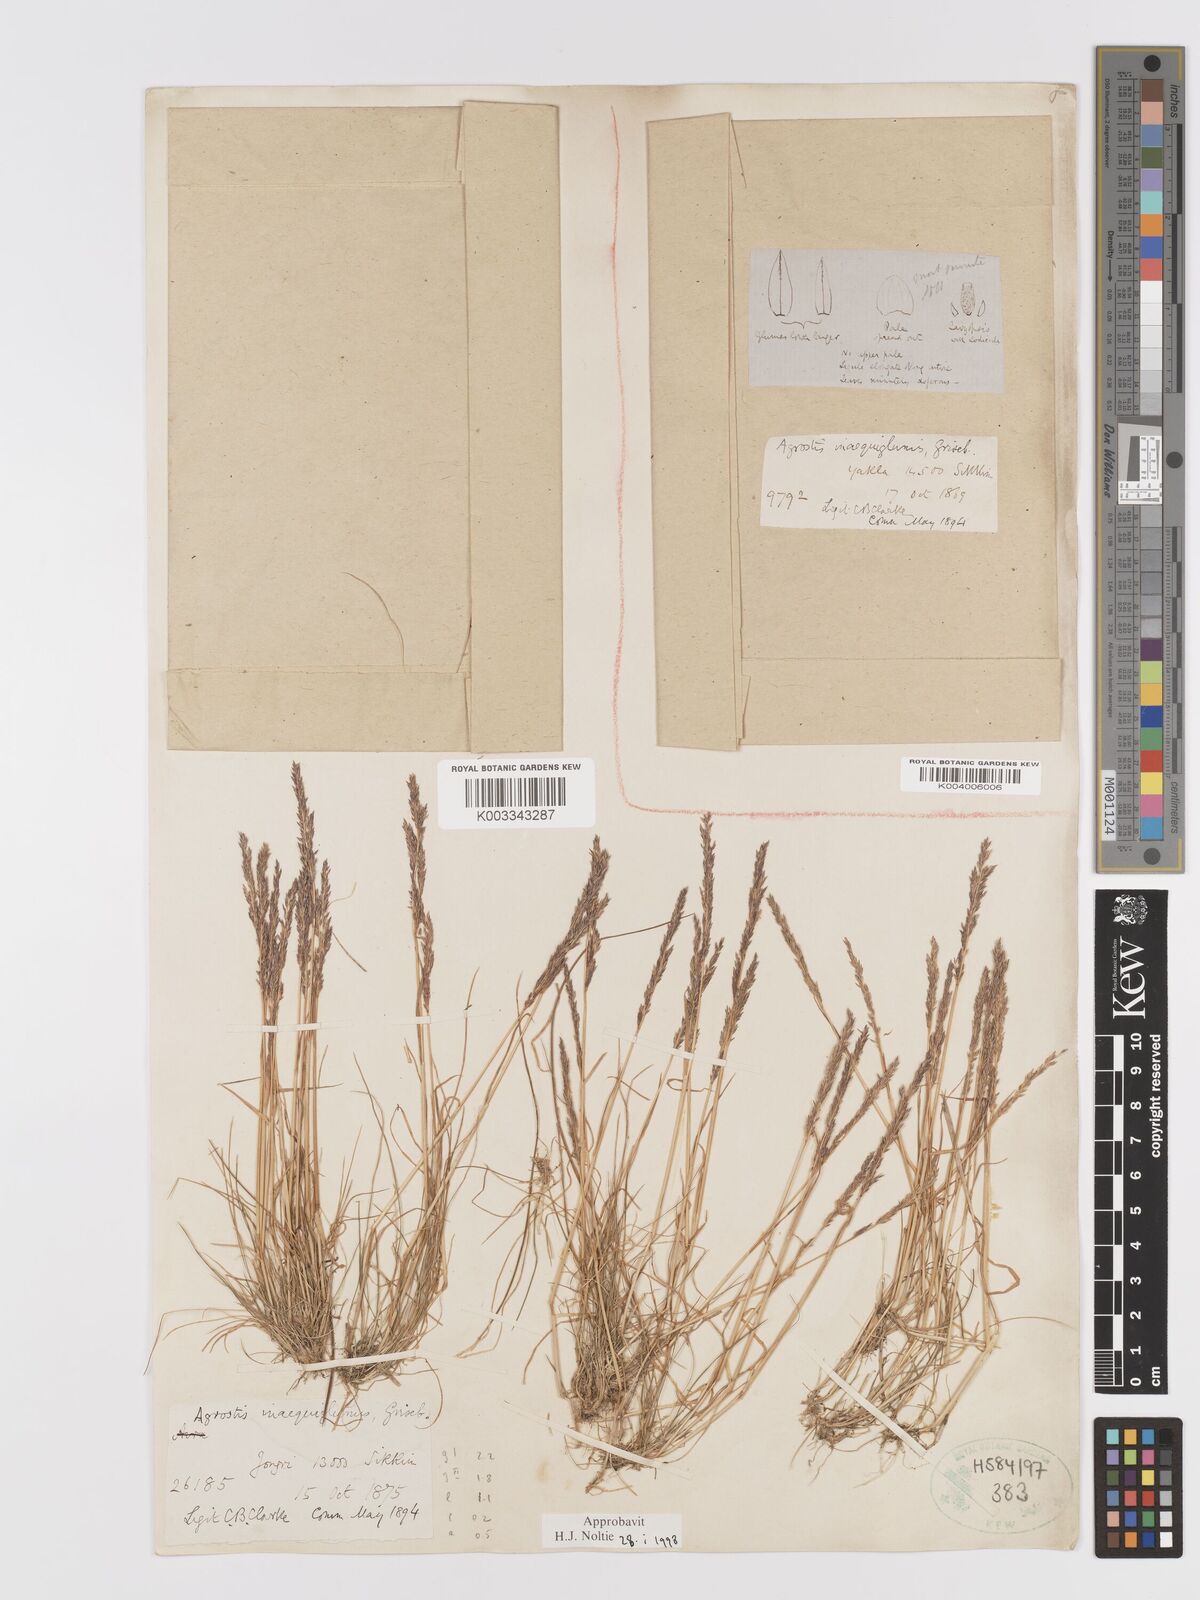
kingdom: Plantae
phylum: Tracheophyta
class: Liliopsida
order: Poales
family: Poaceae
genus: Agrostis
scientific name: Agrostis
